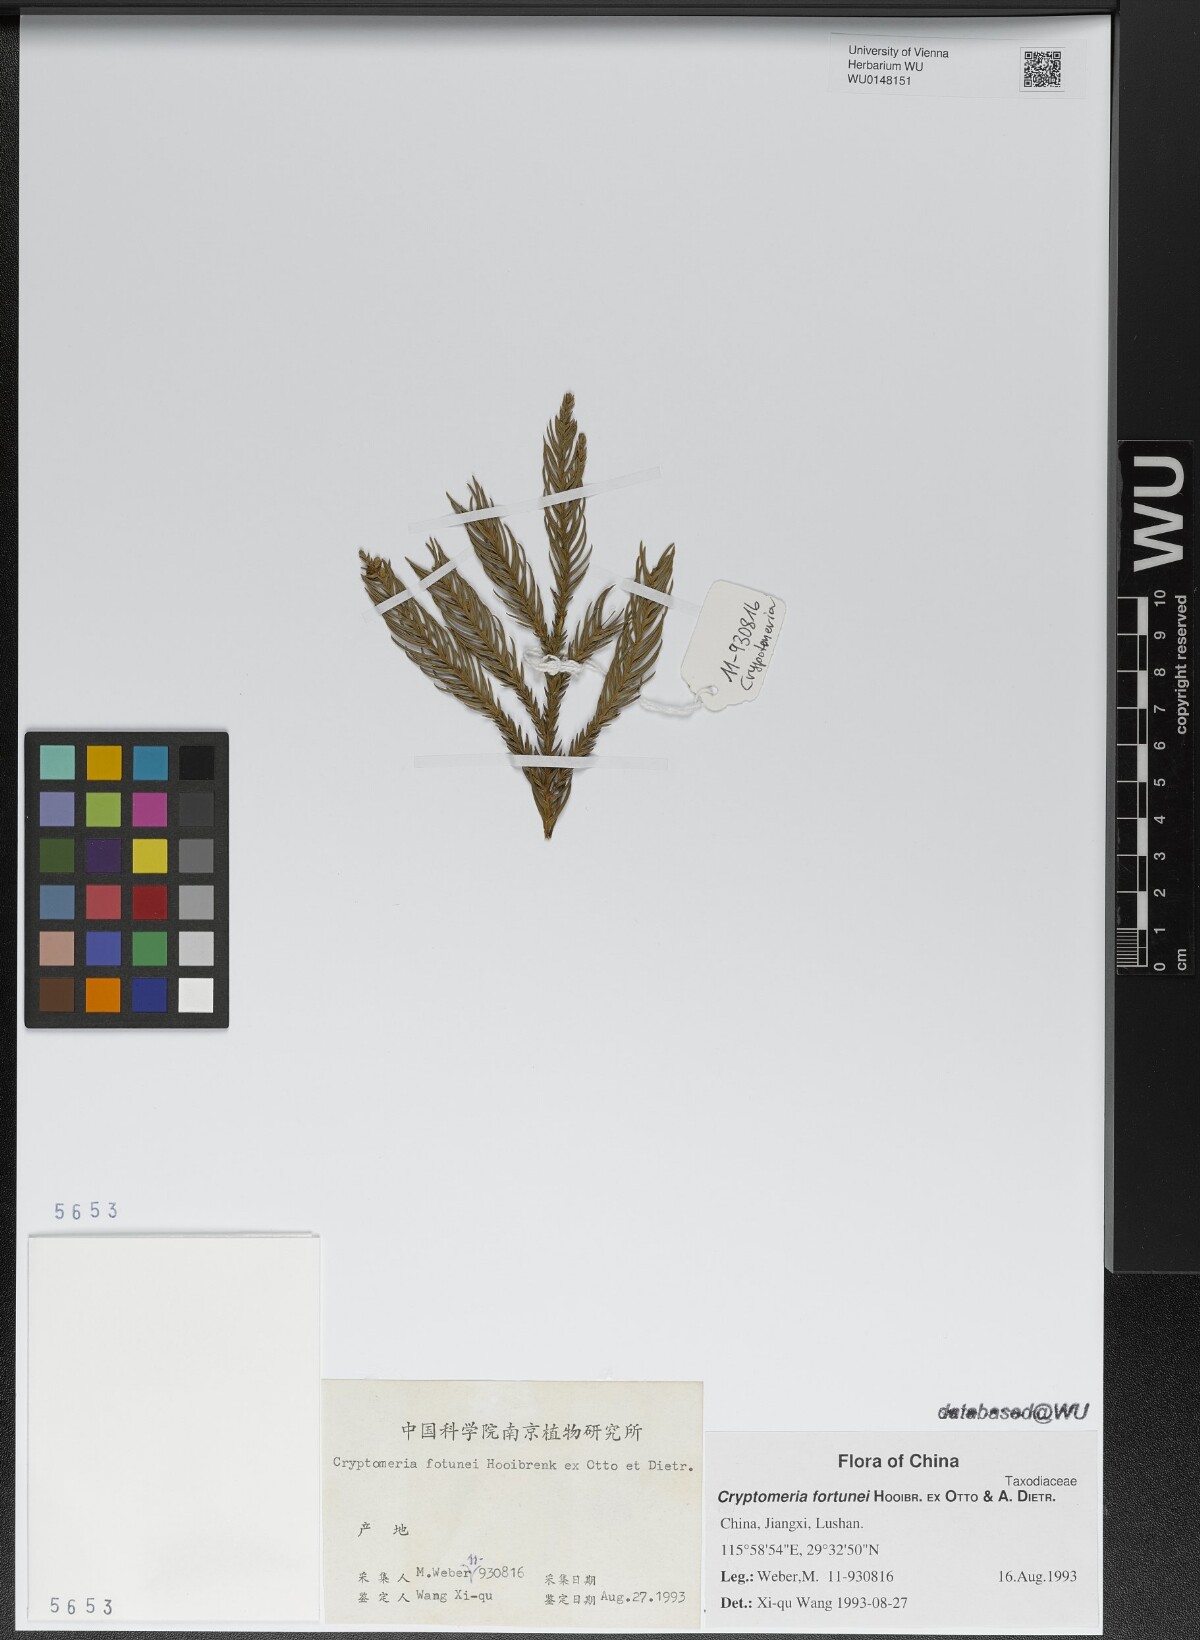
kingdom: Plantae
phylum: Tracheophyta
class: Pinopsida
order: Pinales
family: Cupressaceae
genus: Cryptomeria
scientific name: Cryptomeria japonica
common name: Japanese cedar
